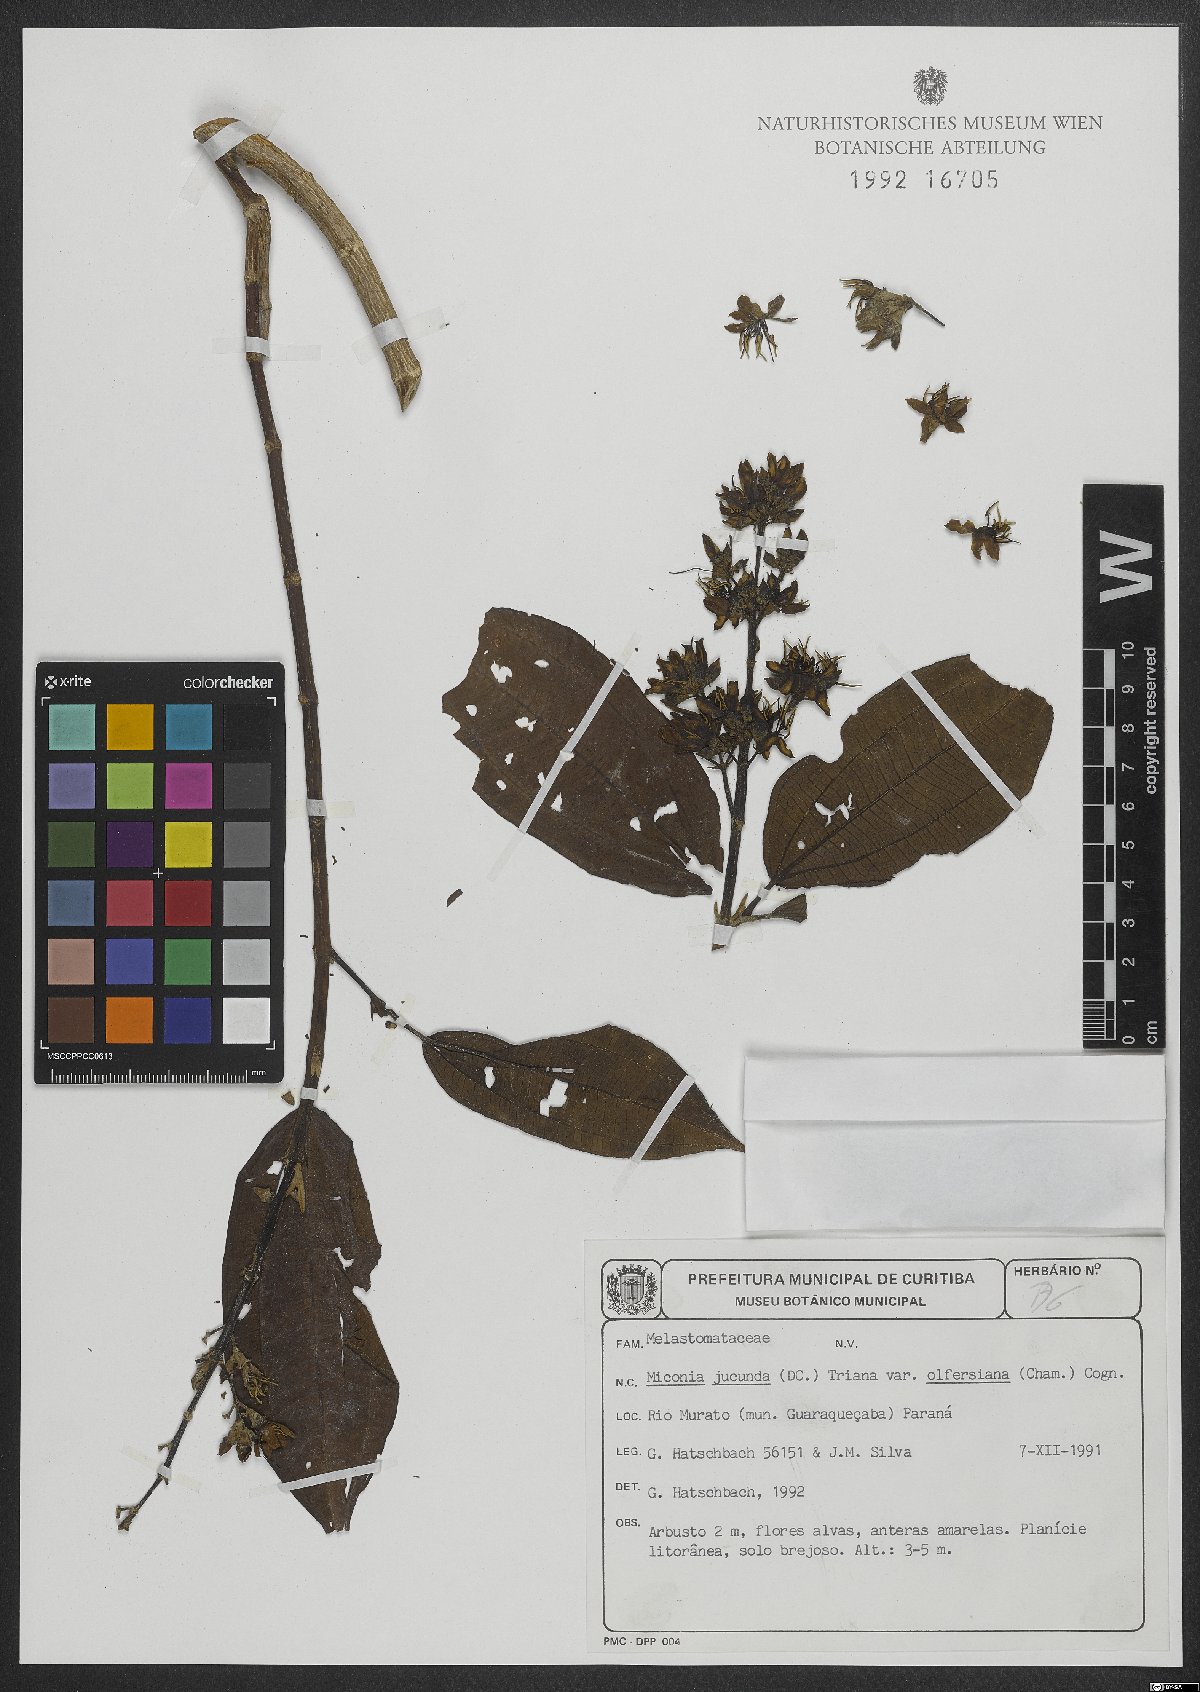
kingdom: Plantae
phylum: Tracheophyta
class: Magnoliopsida
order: Myrtales
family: Melastomataceae
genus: Miconia
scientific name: Miconia jucunda
